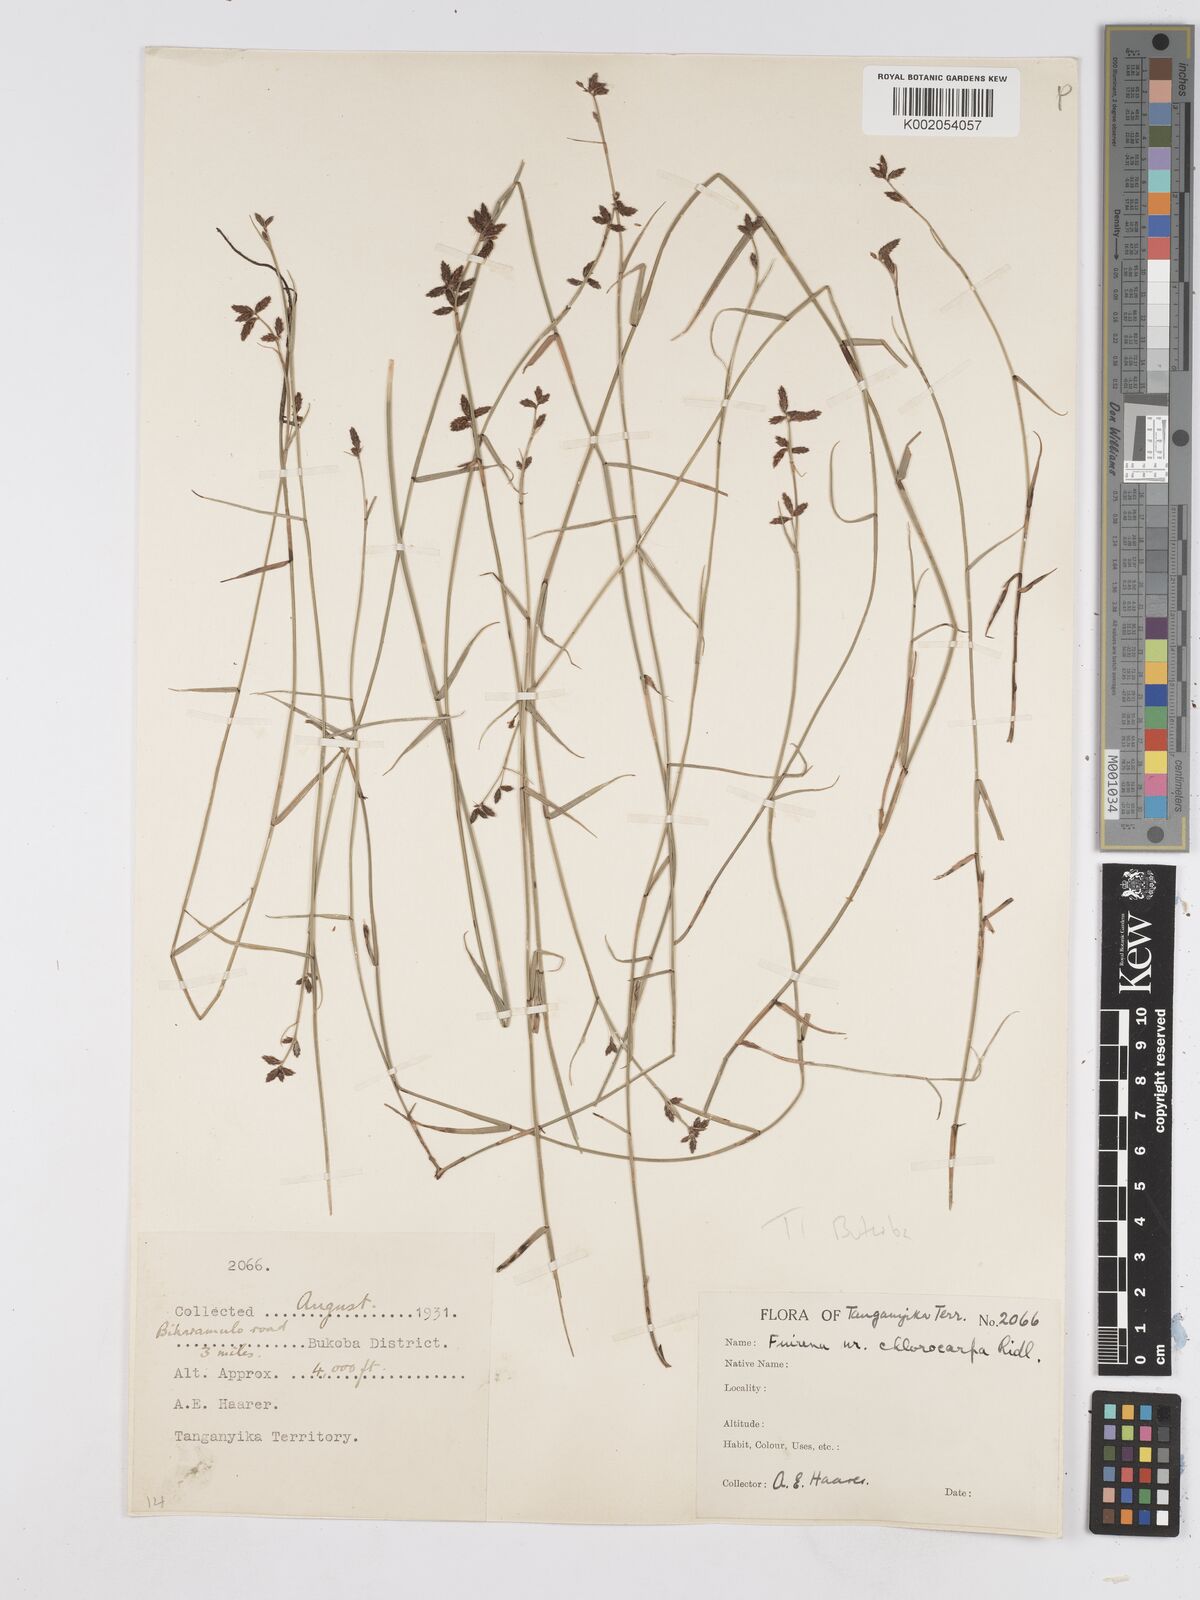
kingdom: Plantae
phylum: Tracheophyta
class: Liliopsida
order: Poales
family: Cyperaceae
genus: Fuirena
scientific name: Fuirena stricta
